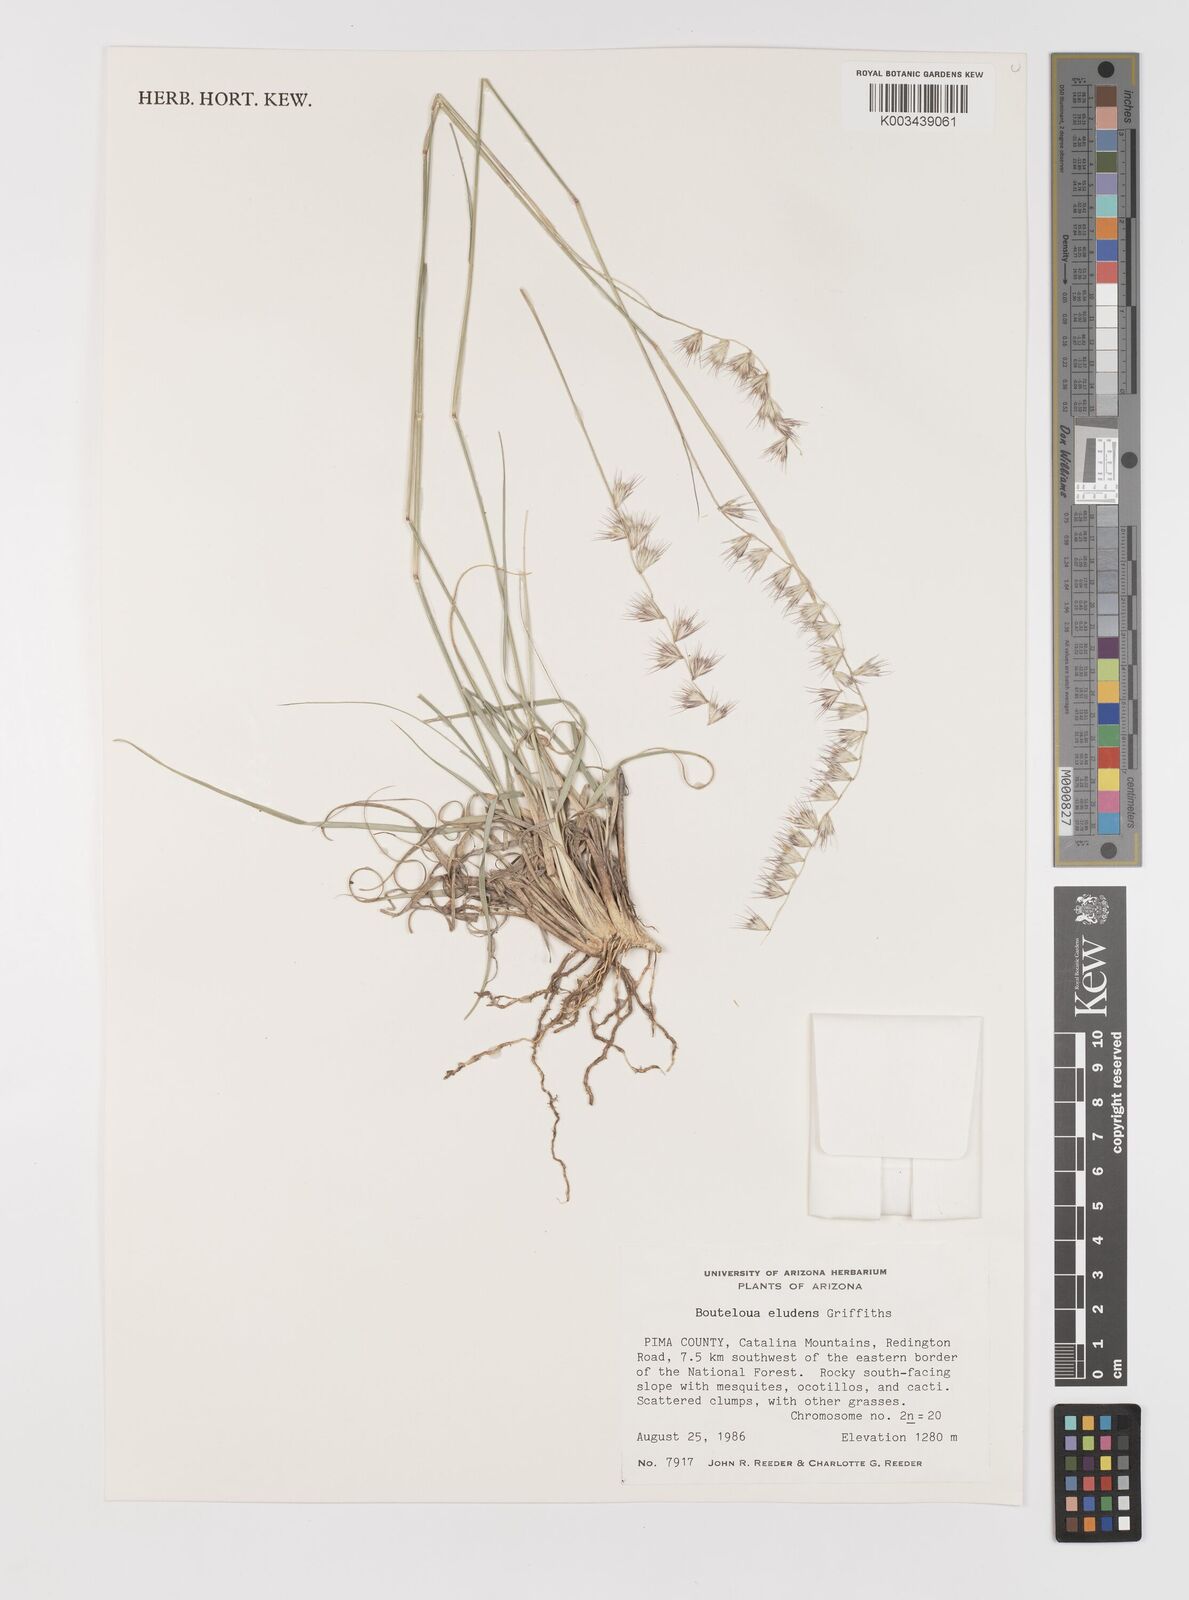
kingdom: Plantae
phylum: Tracheophyta
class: Liliopsida
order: Poales
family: Poaceae
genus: Bouteloua
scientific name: Bouteloua eludens
